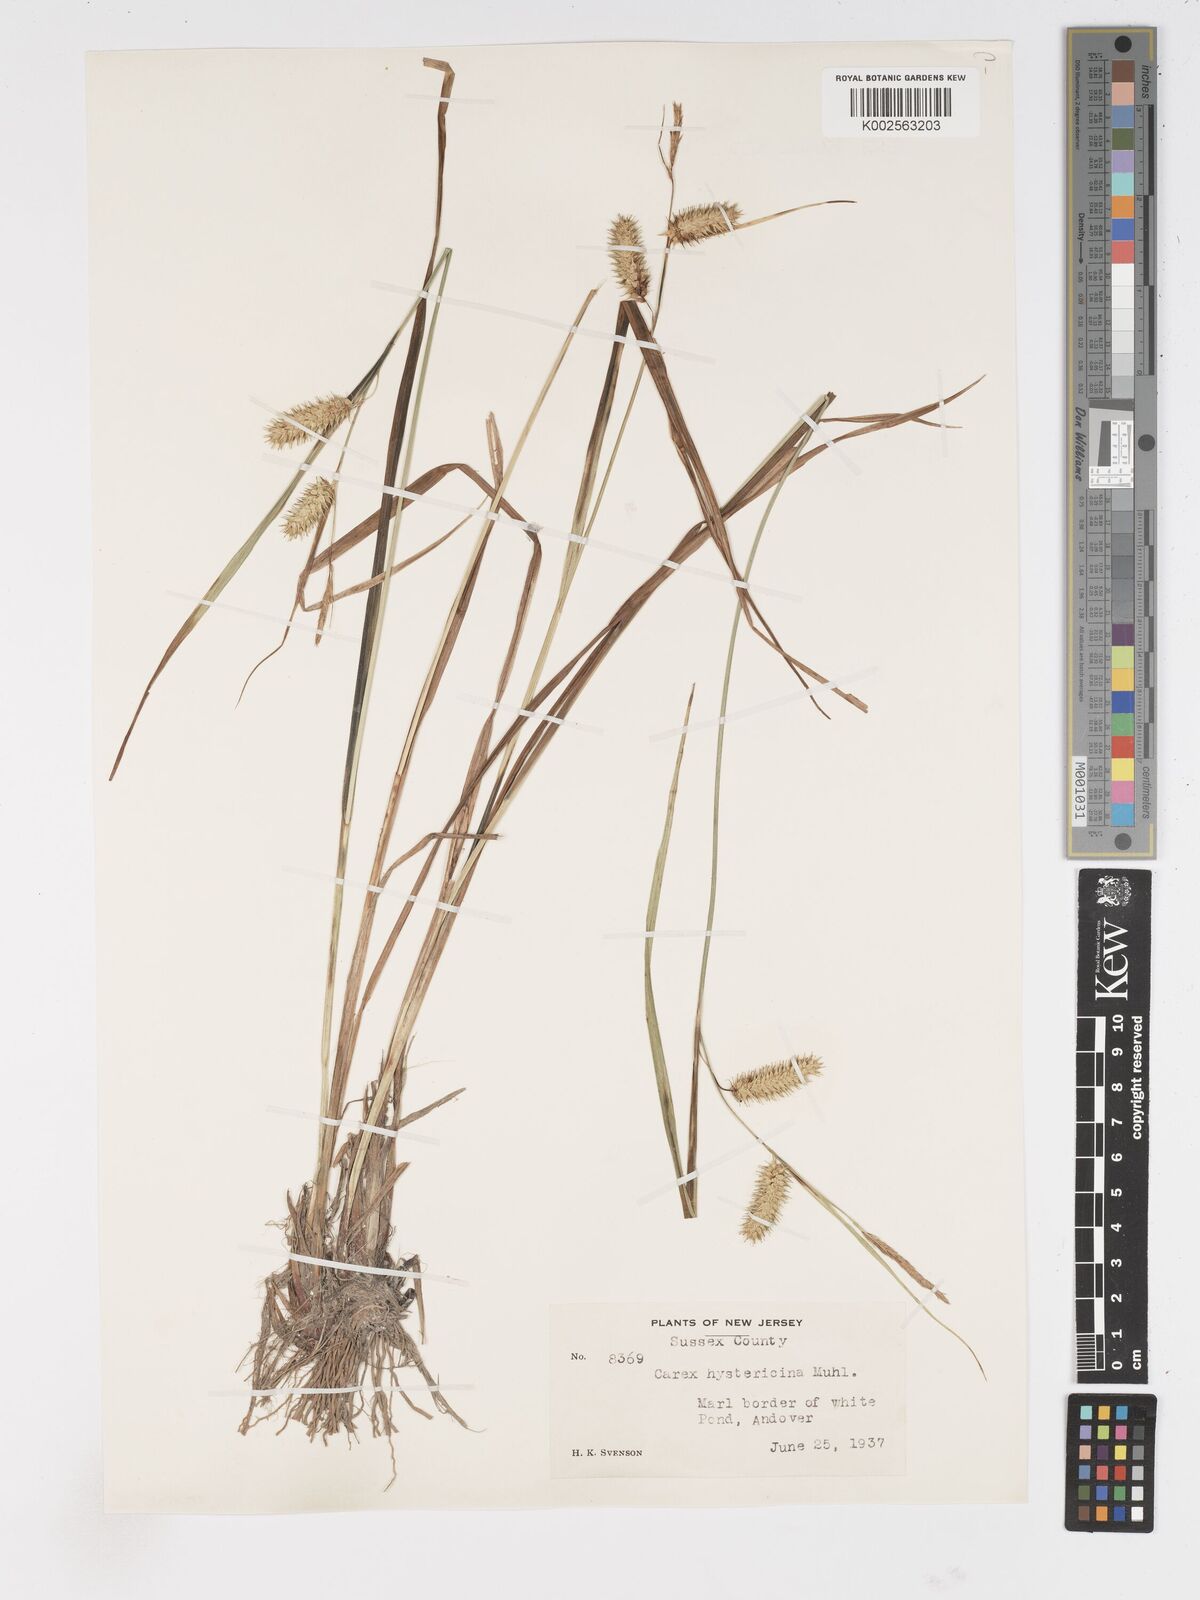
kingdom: Plantae
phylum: Tracheophyta
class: Liliopsida
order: Poales
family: Cyperaceae
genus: Carex
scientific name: Carex hystericina
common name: Bottlebrush sedge
